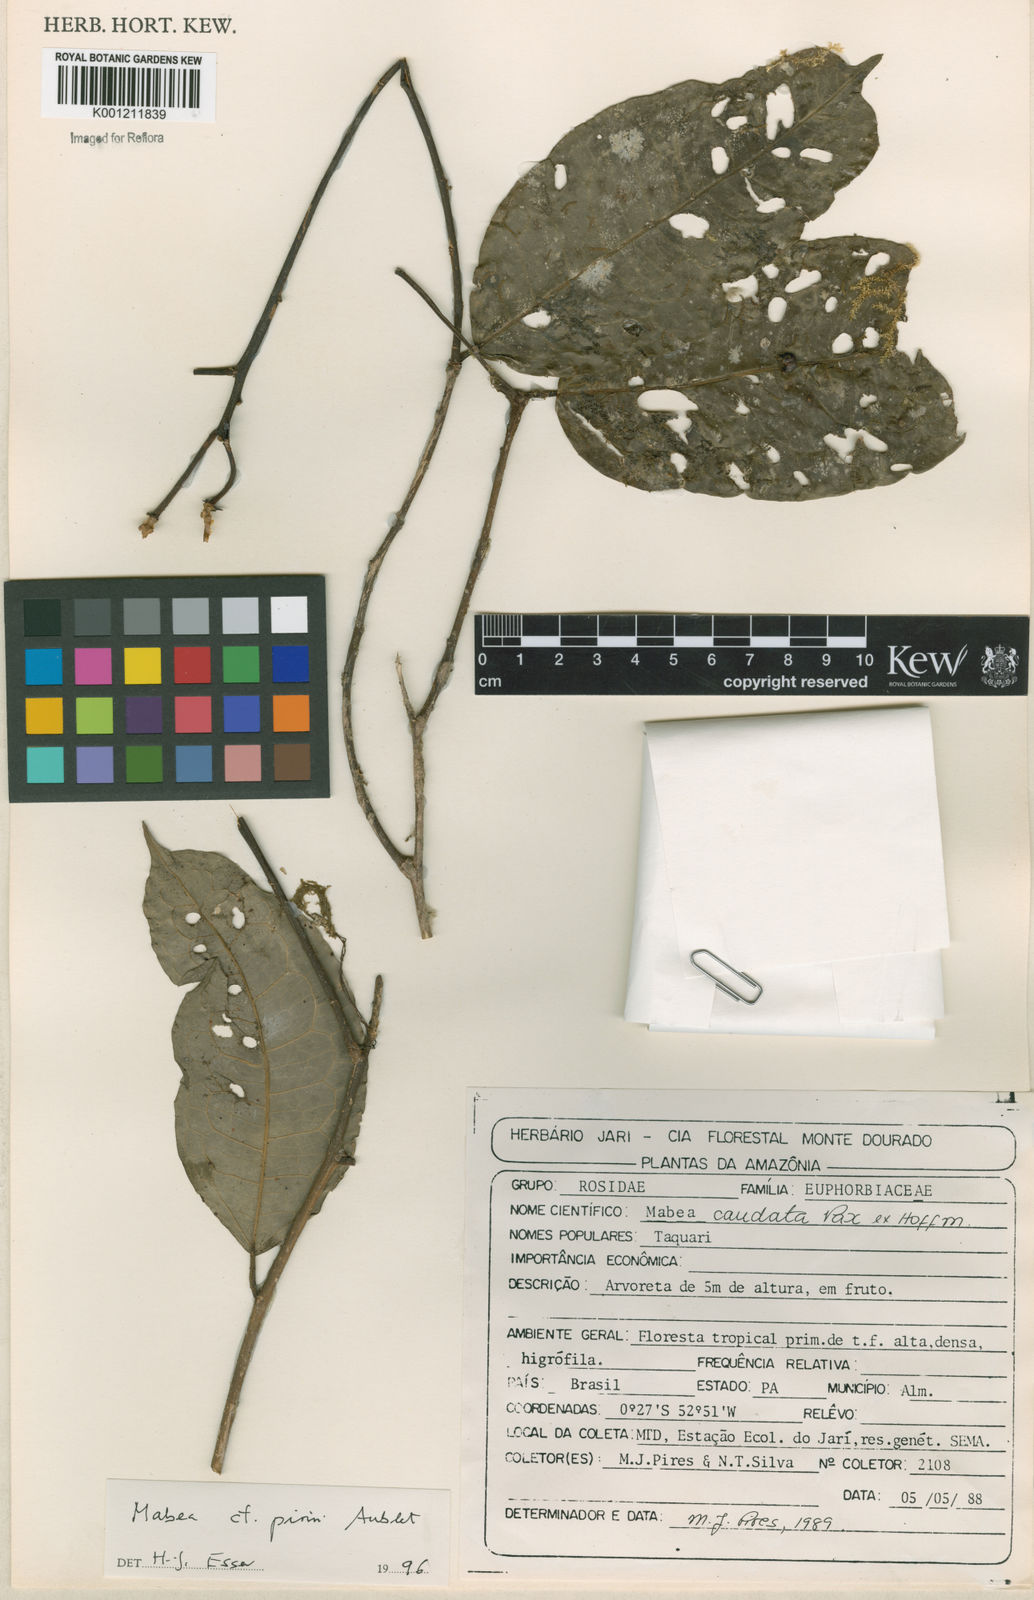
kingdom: Plantae
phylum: Tracheophyta
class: Magnoliopsida
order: Malpighiales
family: Euphorbiaceae
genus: Mabea
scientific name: Mabea piriri
